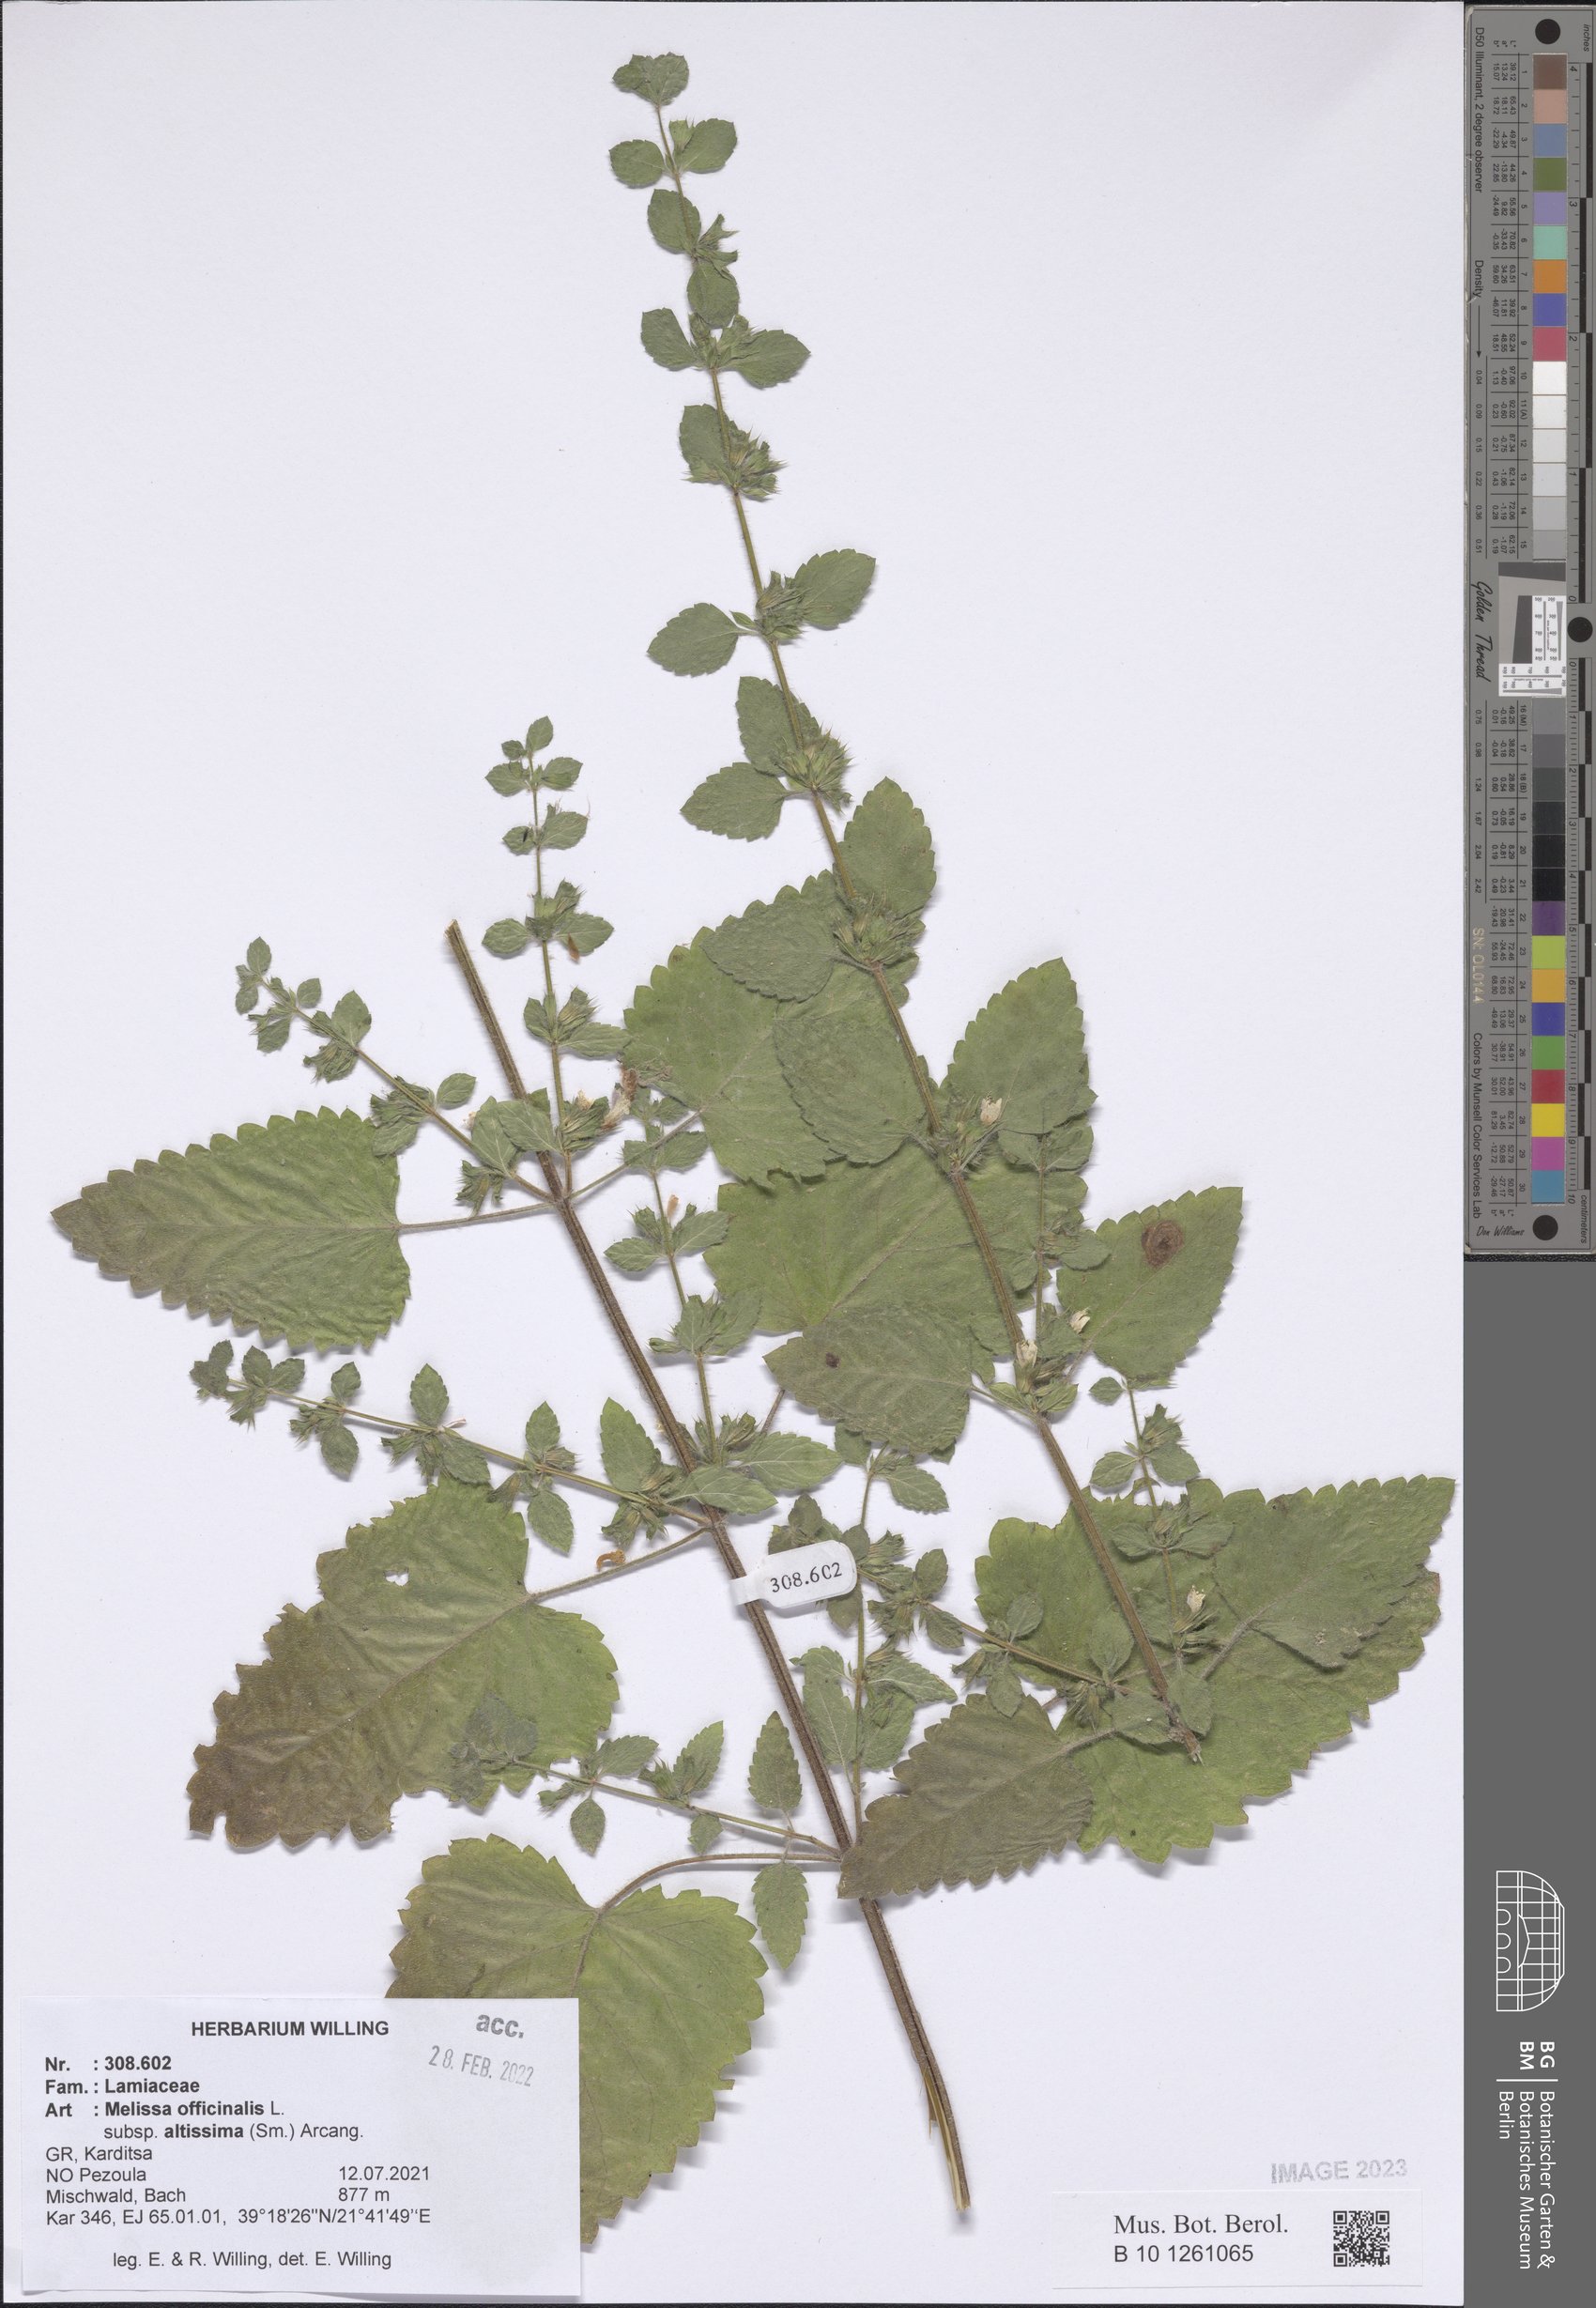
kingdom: Plantae
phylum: Tracheophyta
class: Magnoliopsida
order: Lamiales
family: Lamiaceae
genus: Melissa
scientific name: Melissa officinalis
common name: Balm
